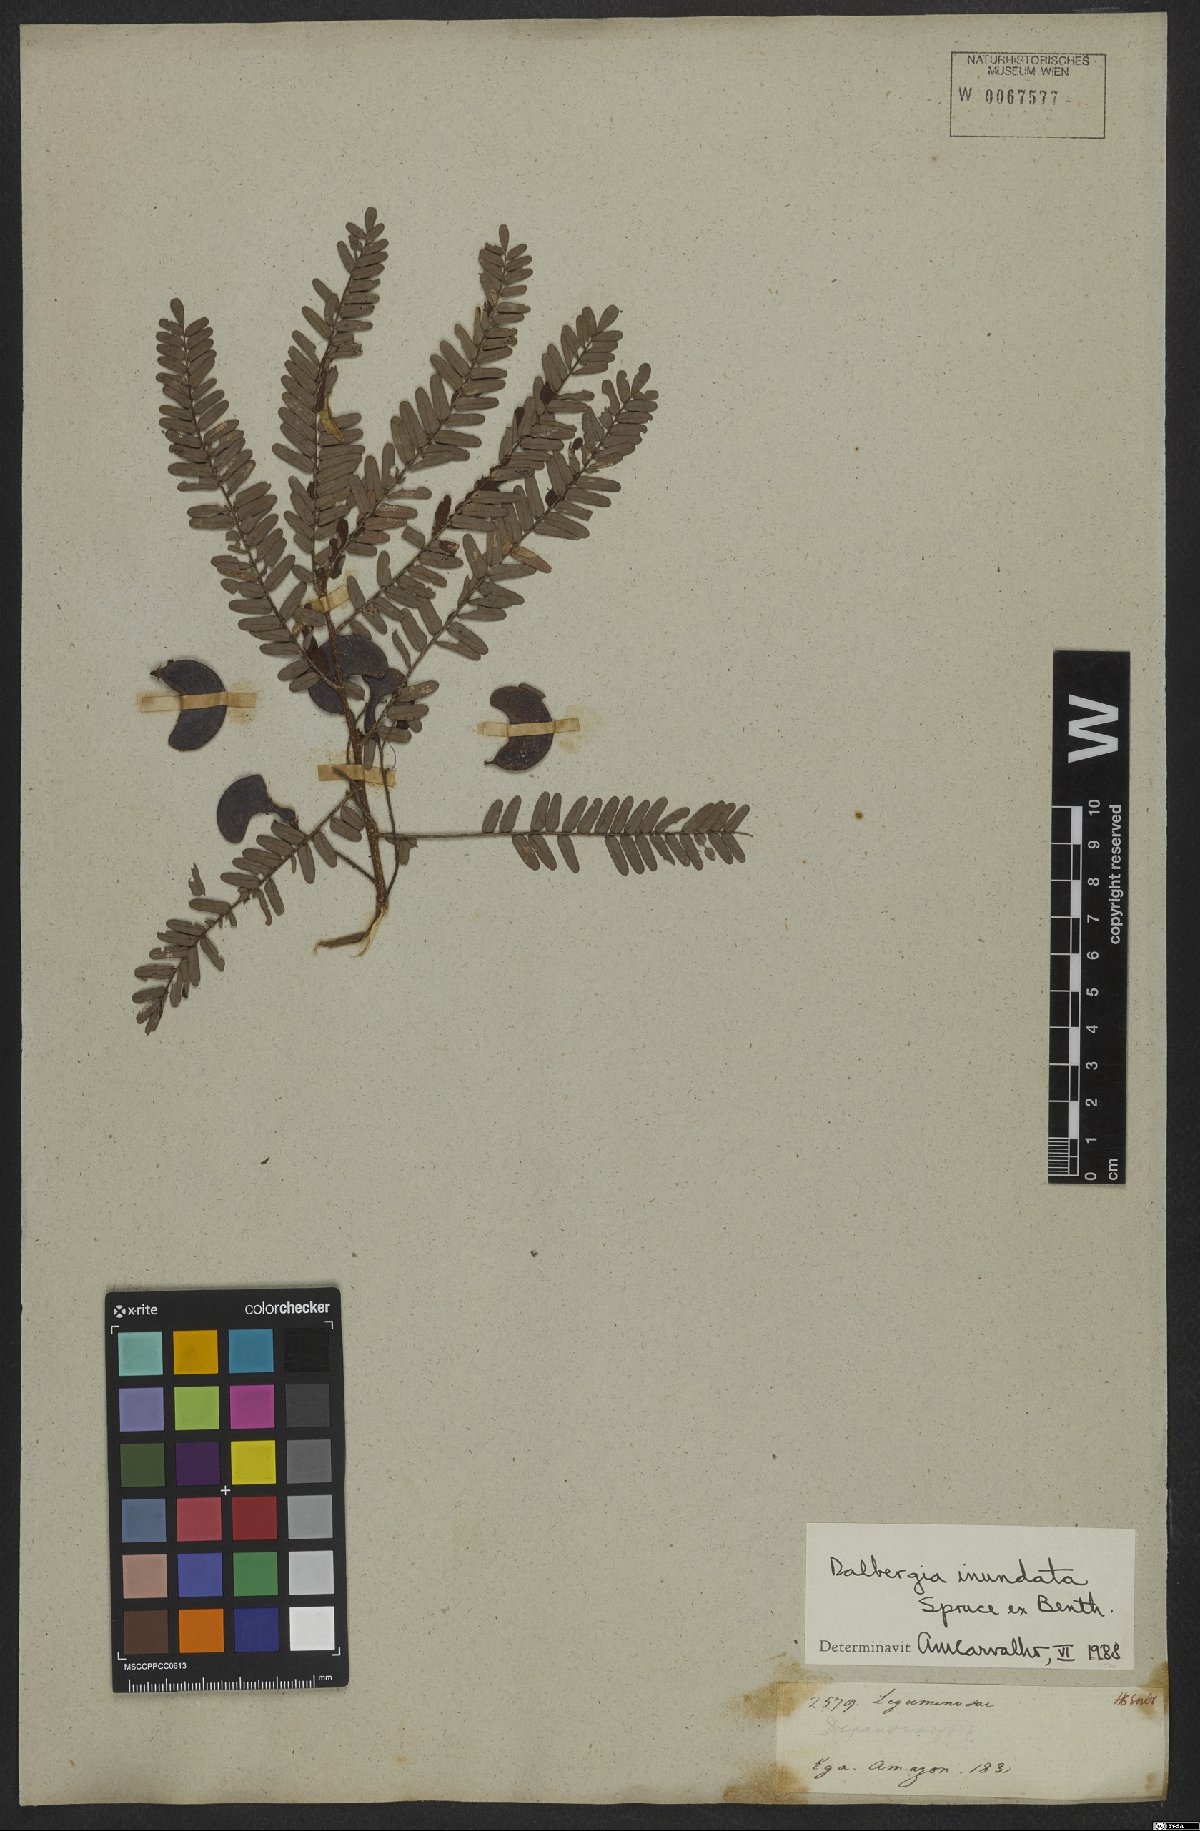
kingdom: Plantae
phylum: Tracheophyta
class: Magnoliopsida
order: Fabales
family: Fabaceae
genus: Dalbergia
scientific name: Dalbergia inundata
